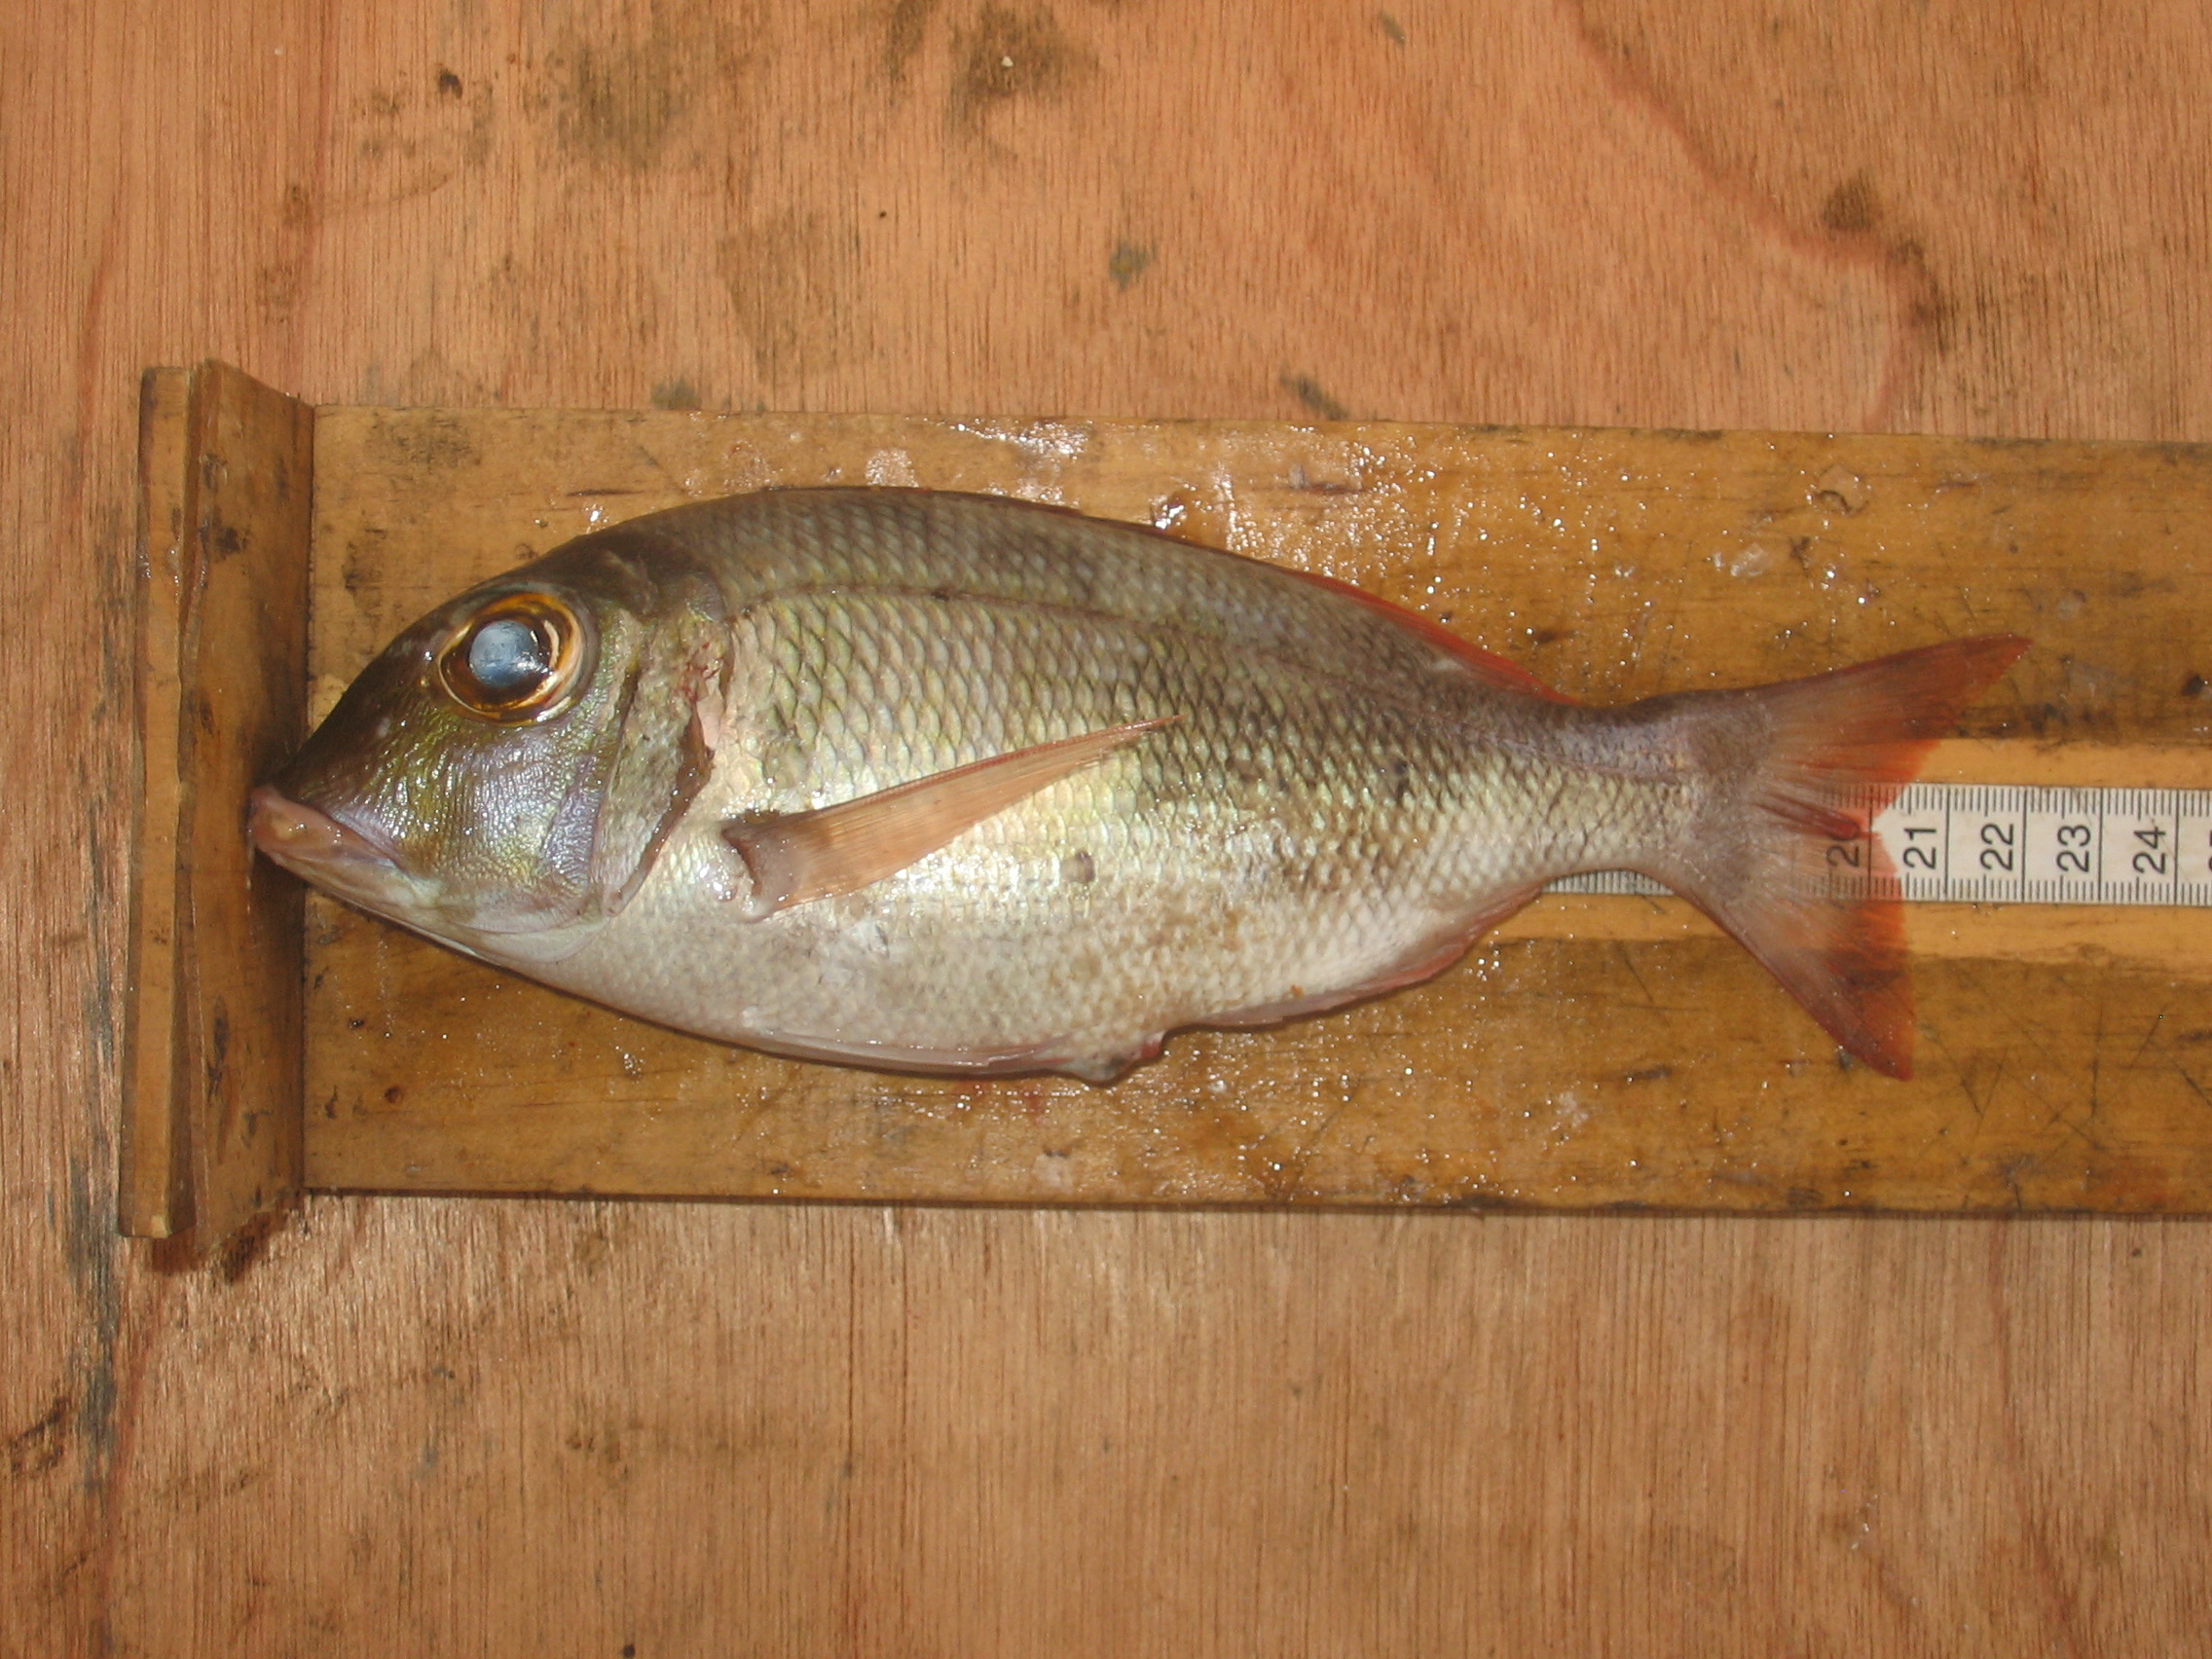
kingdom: Animalia
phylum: Chordata
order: Perciformes
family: Lethrinidae
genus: Lethrinus
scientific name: Lethrinus
